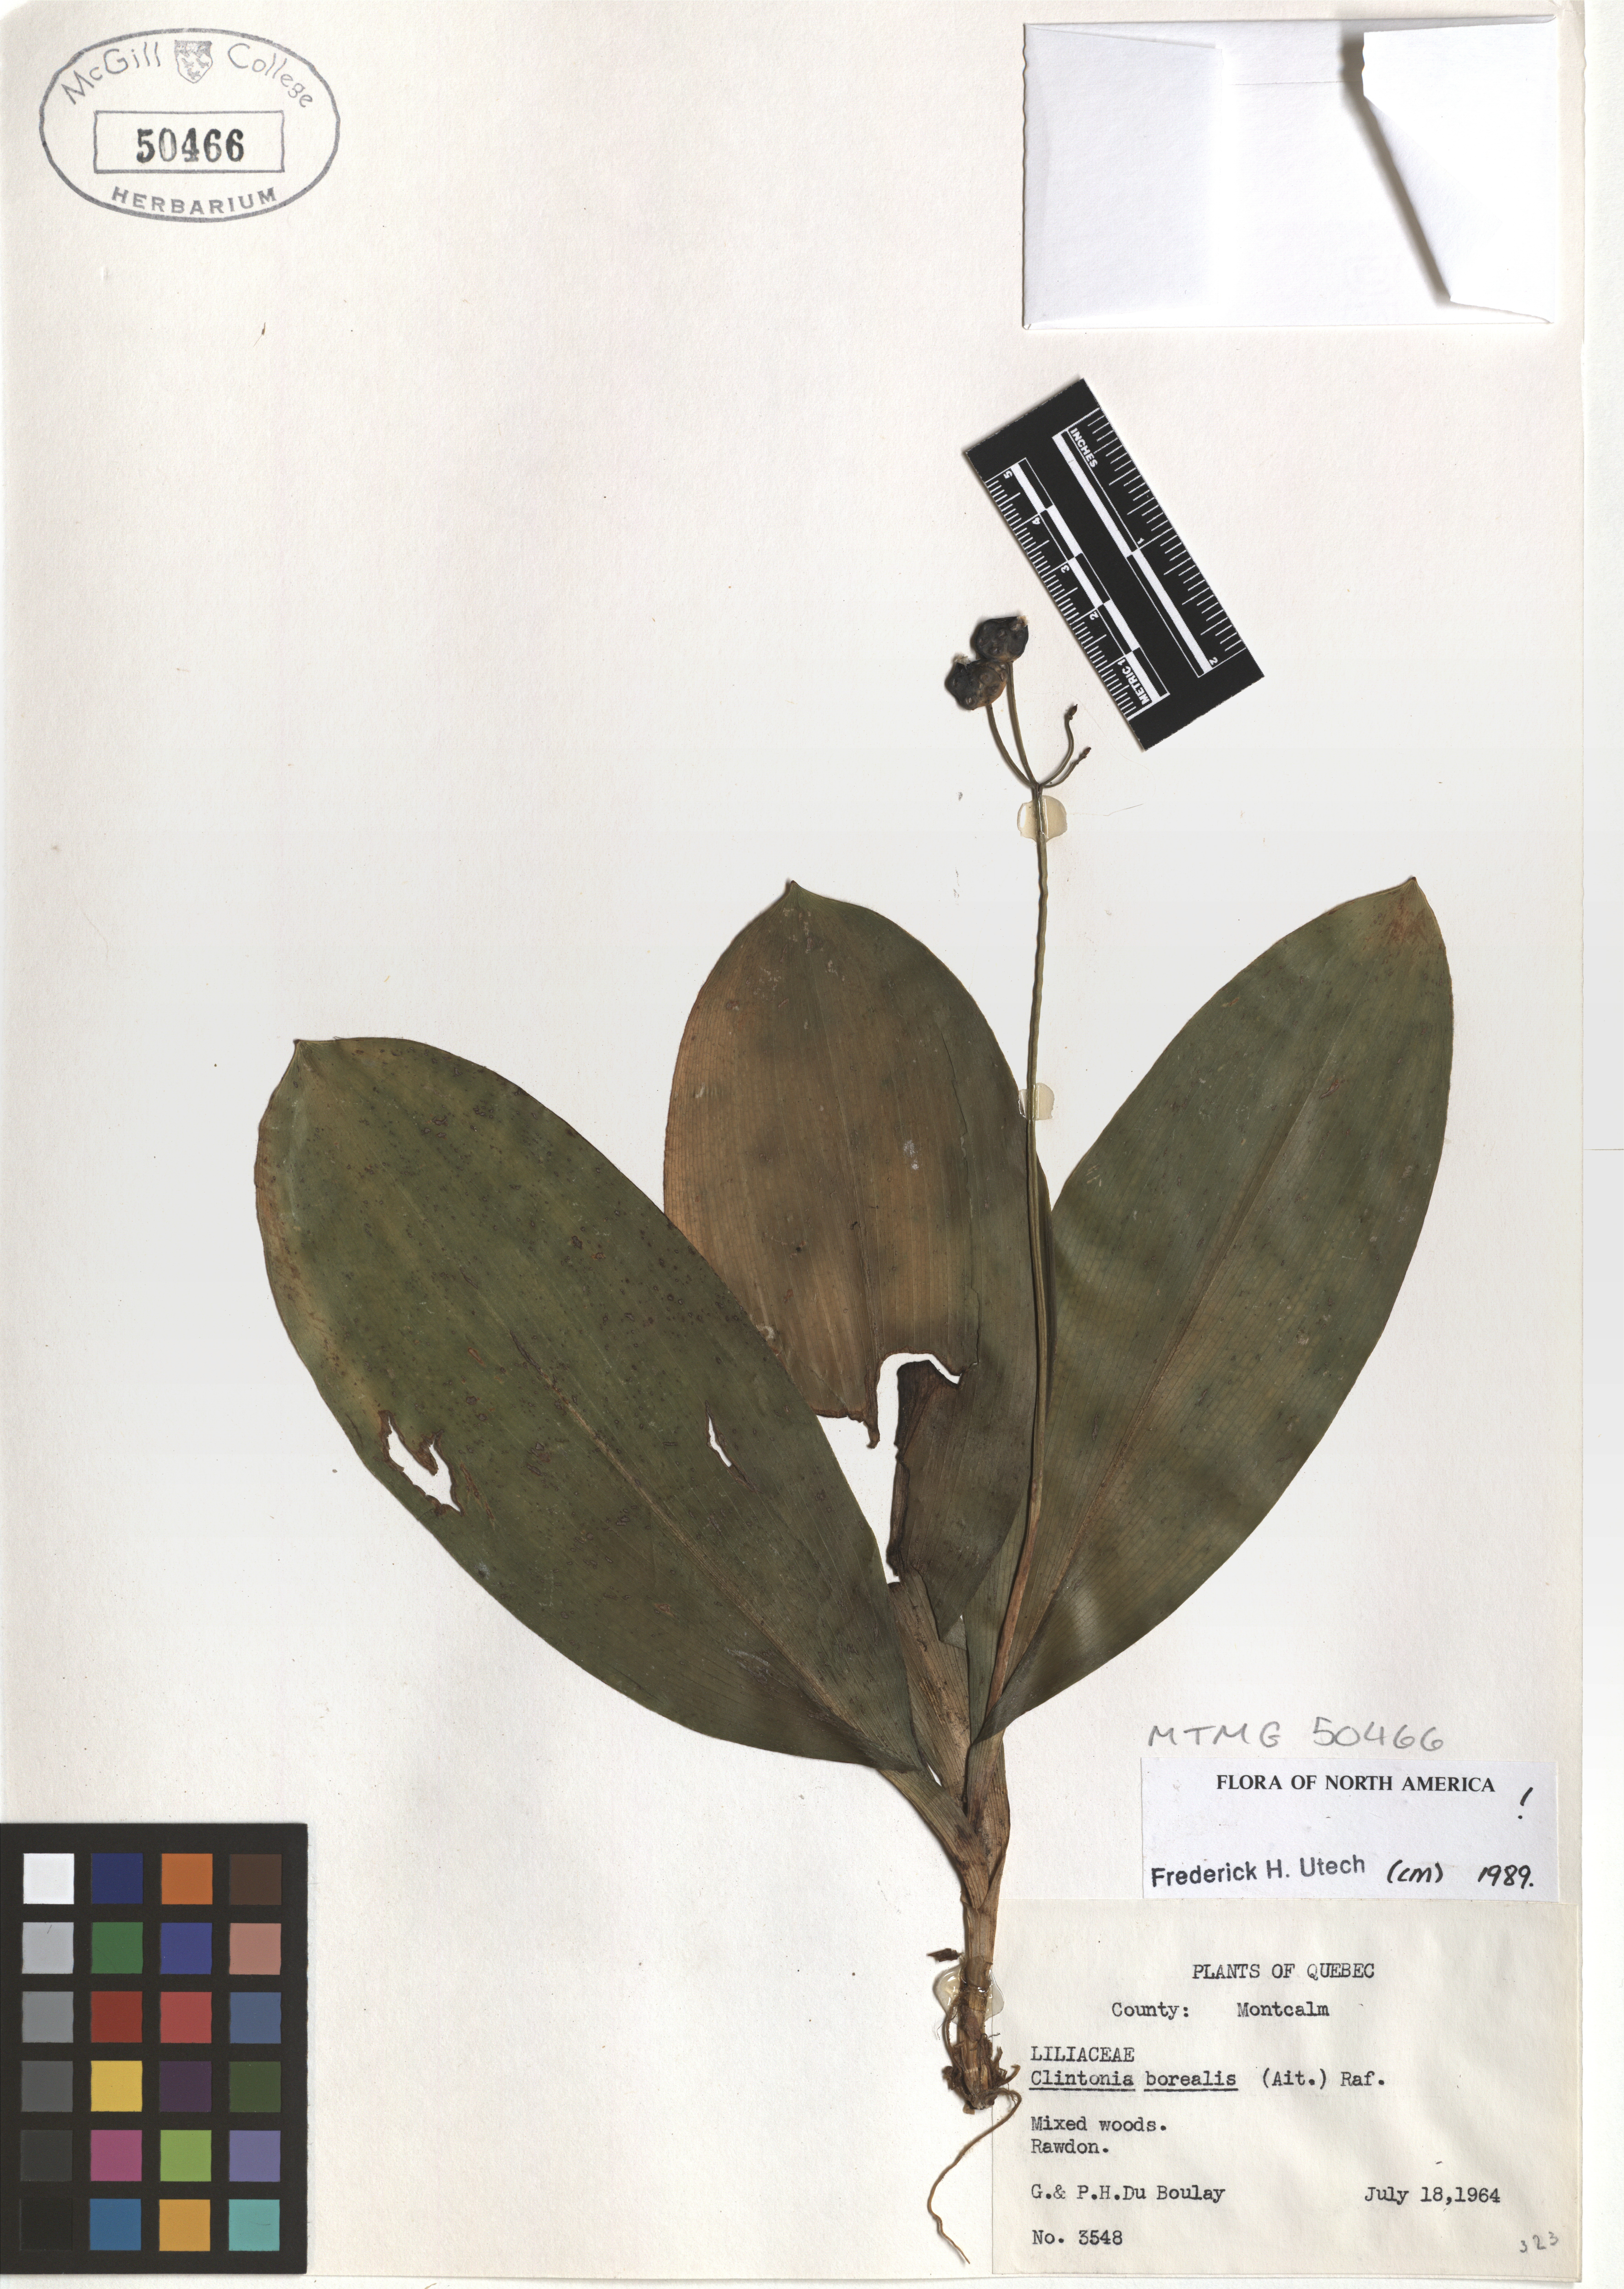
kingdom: Plantae
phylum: Tracheophyta
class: Liliopsida
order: Liliales
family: Liliaceae
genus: Clintonia
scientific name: Clintonia borealis
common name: Yellow clintonia
